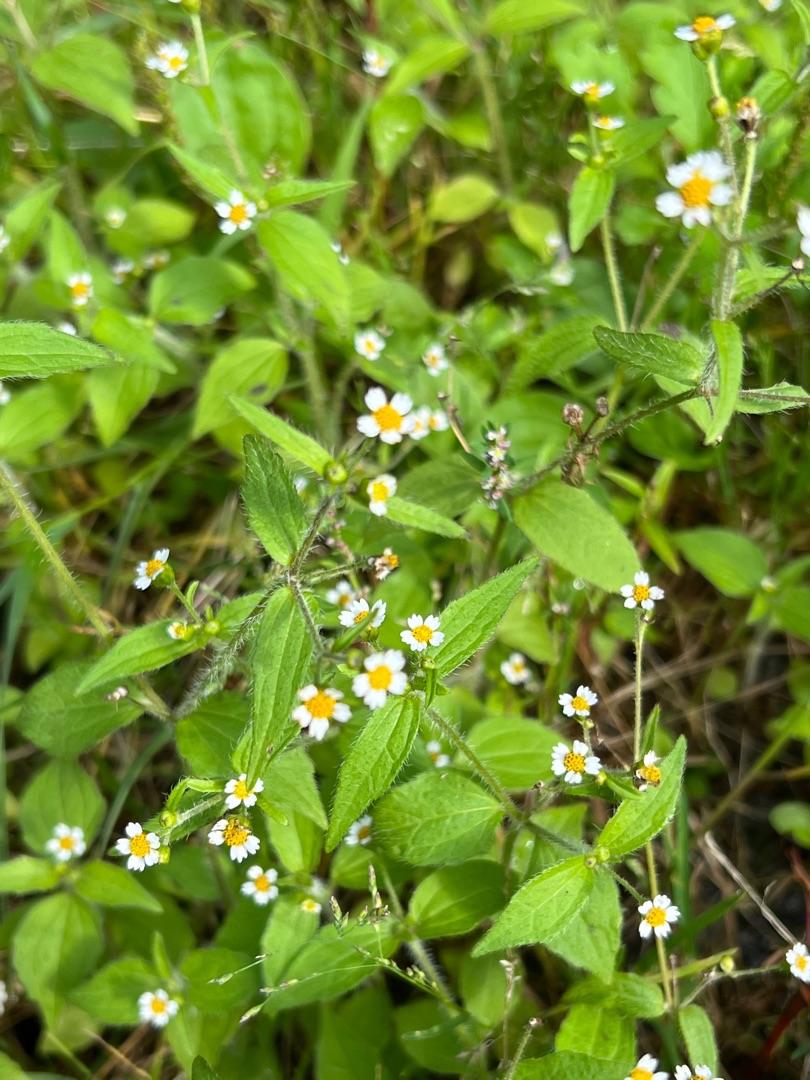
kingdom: Plantae
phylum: Tracheophyta
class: Magnoliopsida
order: Asterales
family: Asteraceae
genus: Galinsoga
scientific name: Galinsoga quadriradiata
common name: Kirtel-kortstråle
